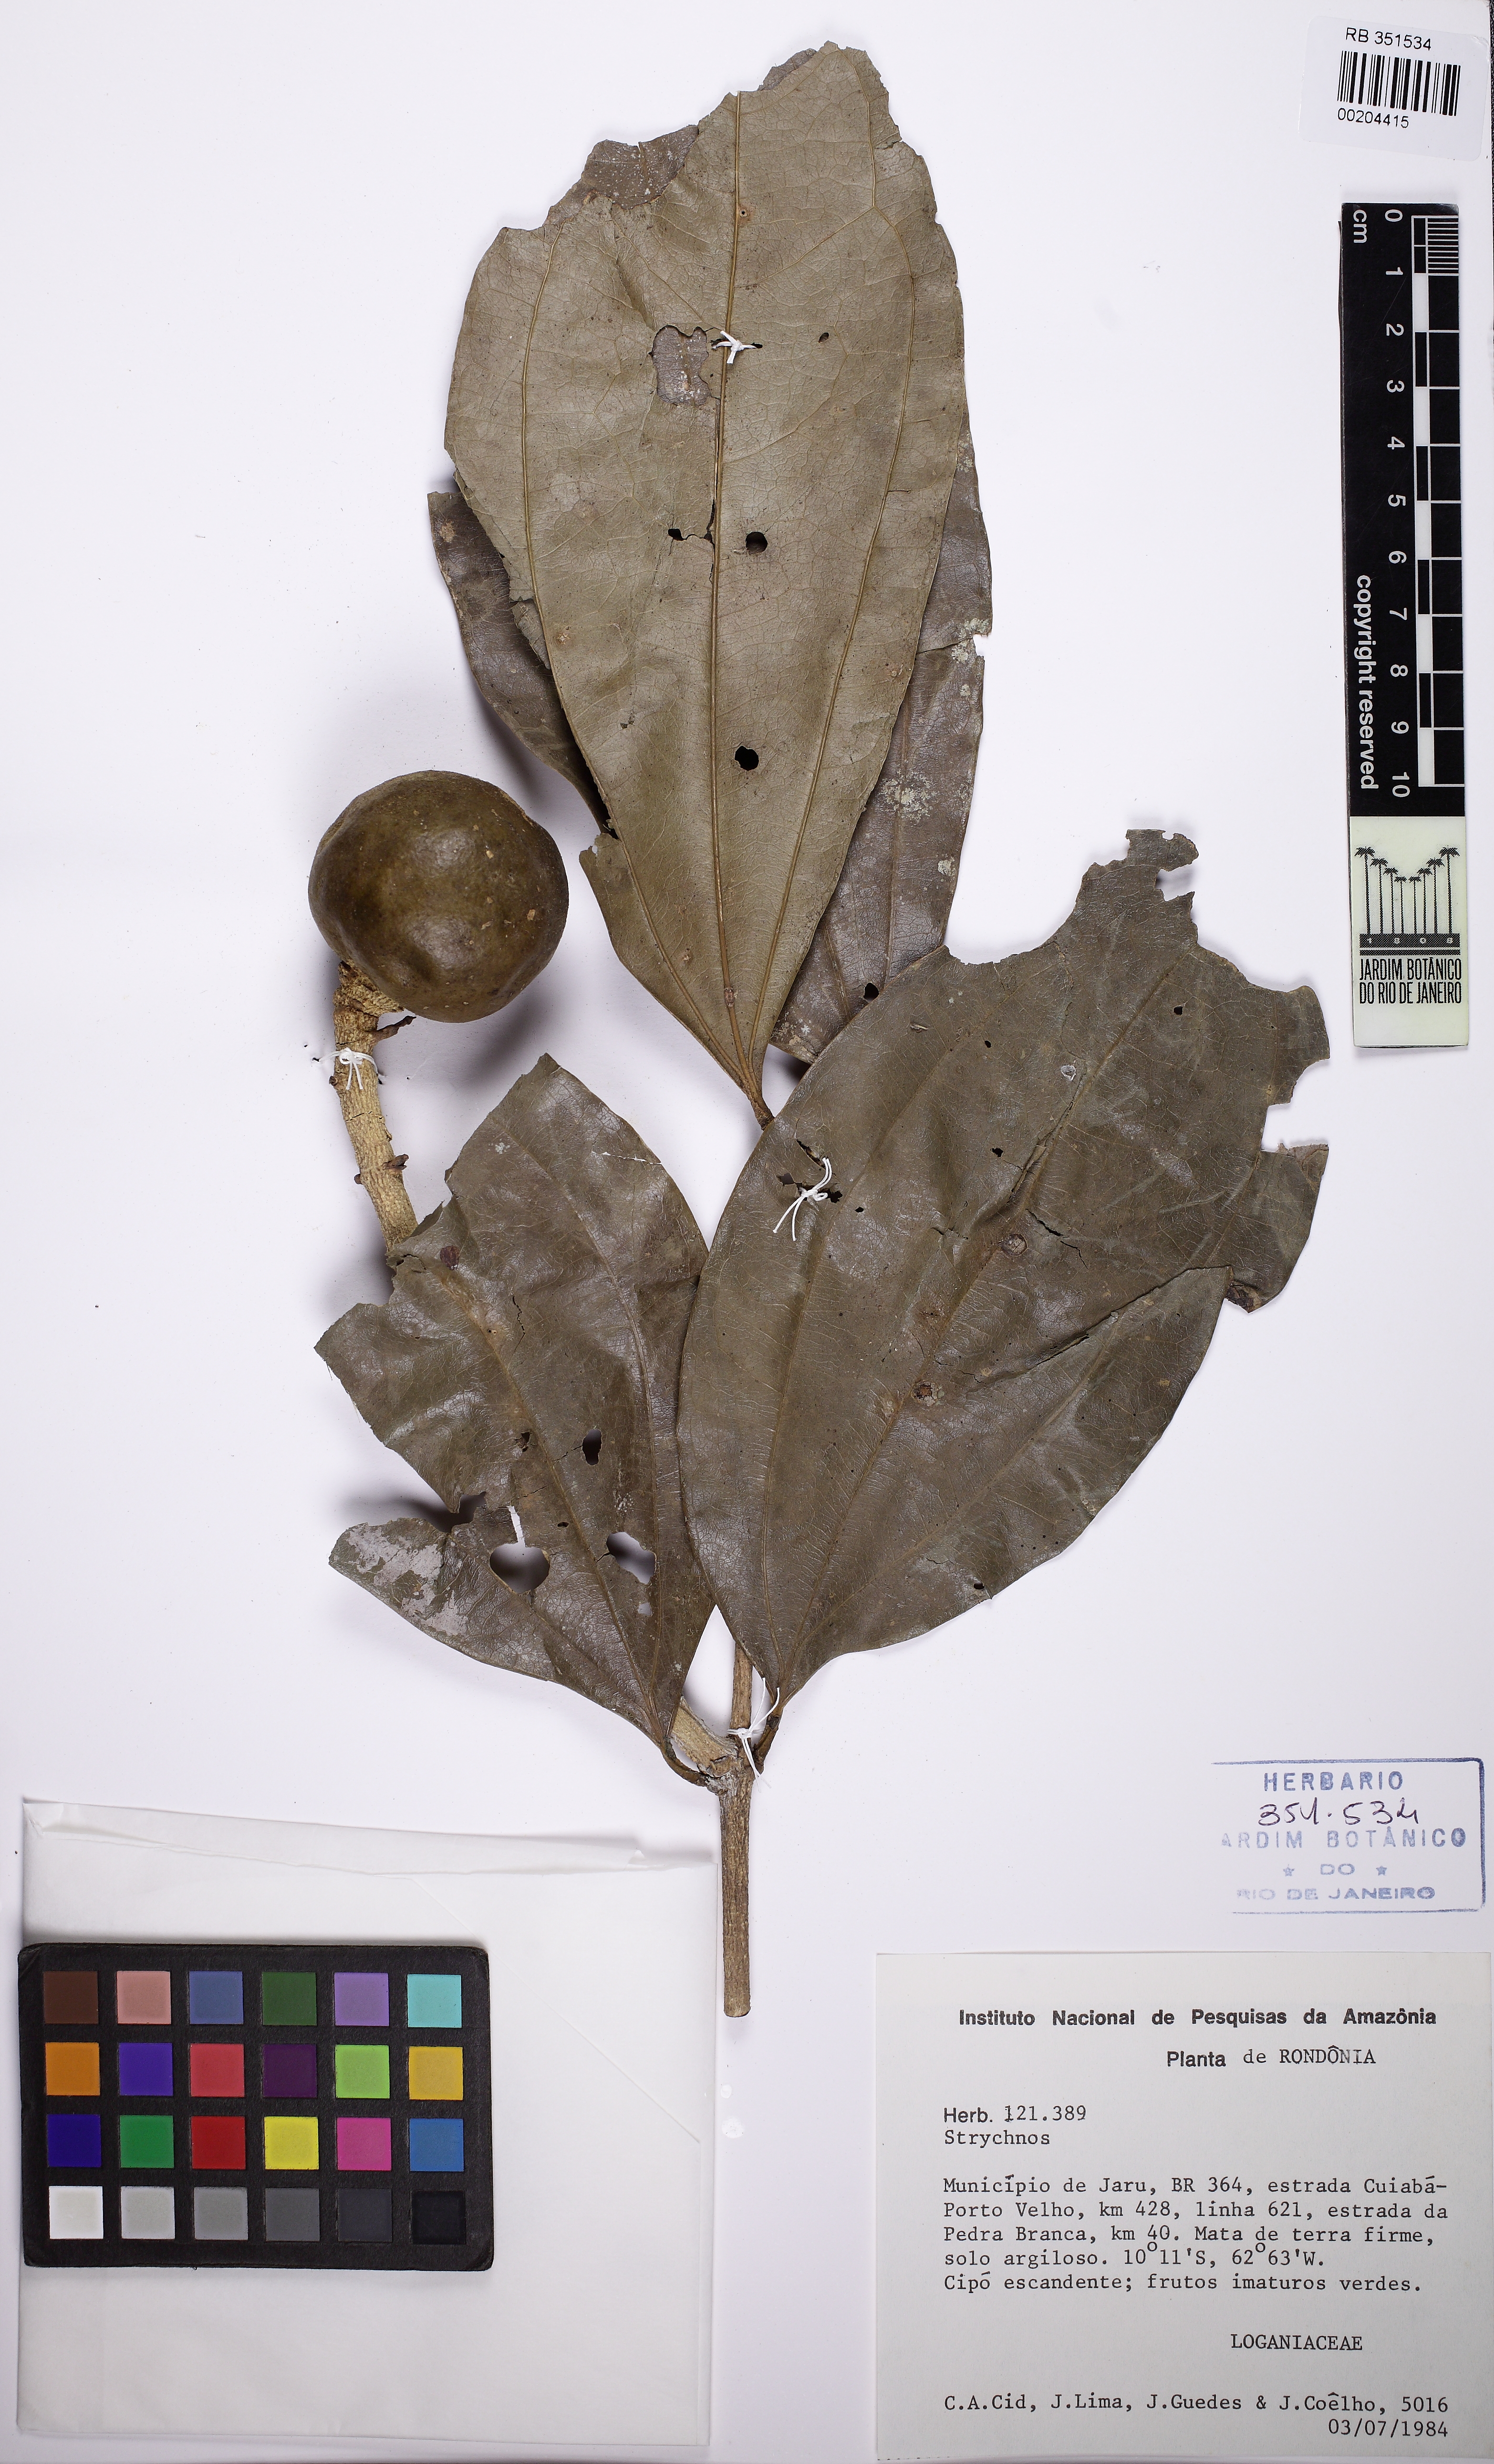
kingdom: Plantae
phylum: Tracheophyta
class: Magnoliopsida
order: Gentianales
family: Loganiaceae
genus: Strychnos
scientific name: Strychnos asperula
